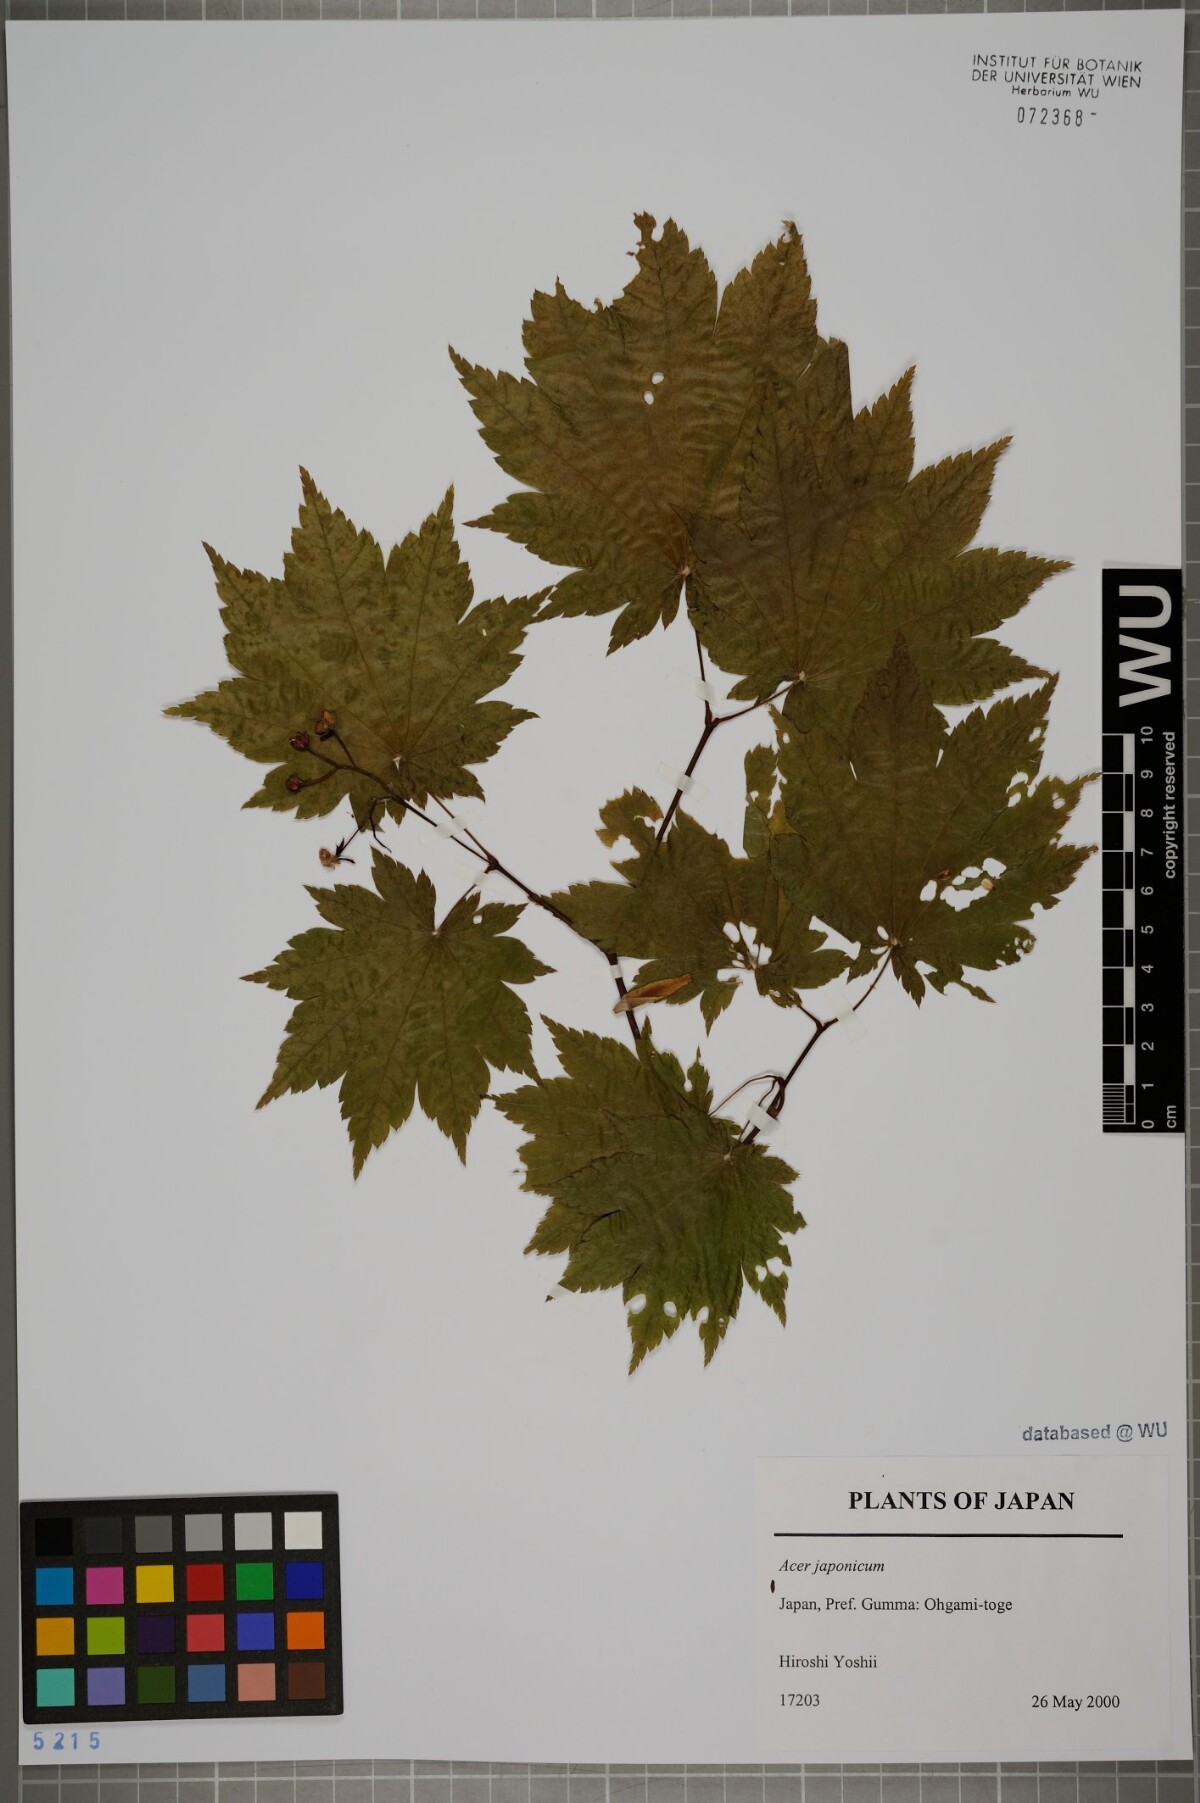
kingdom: Plantae
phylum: Tracheophyta
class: Magnoliopsida
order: Sapindales
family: Sapindaceae
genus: Acer
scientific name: Acer japonicum
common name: Amur maple
